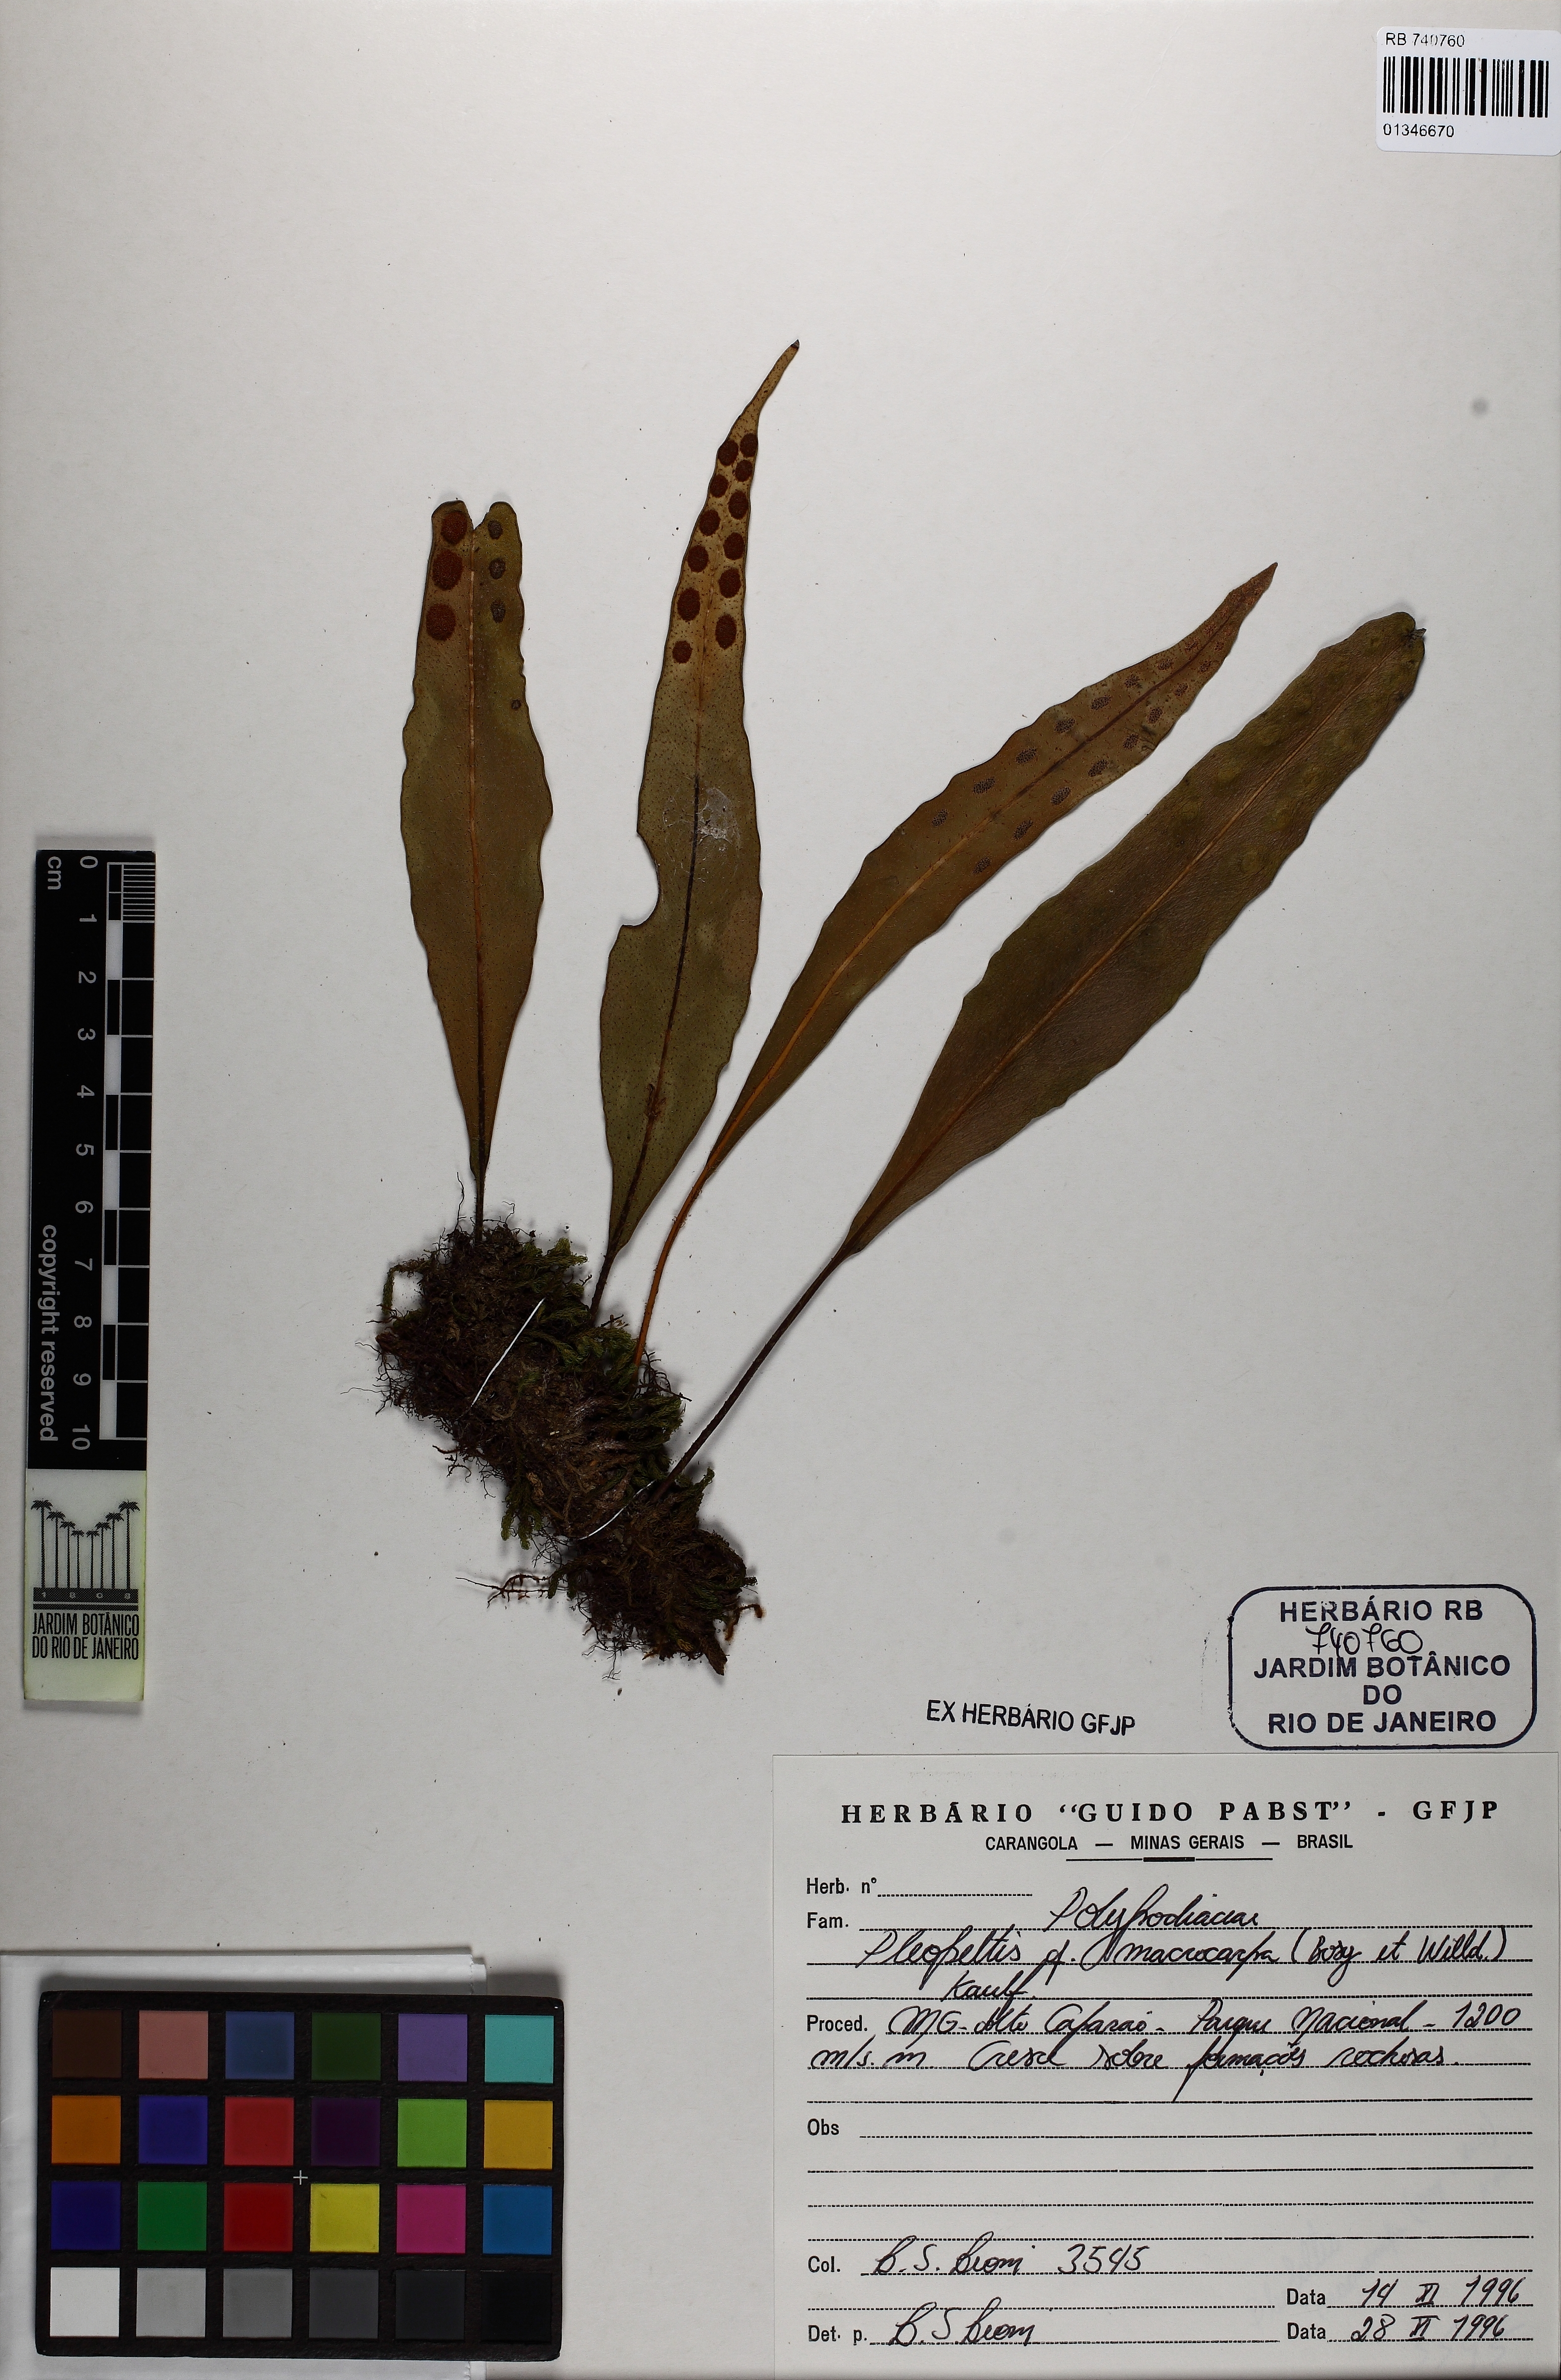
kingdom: Plantae
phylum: Tracheophyta
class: Polypodiopsida
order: Polypodiales
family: Polypodiaceae
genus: Pleopeltis
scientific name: Pleopeltis macrocarpa
